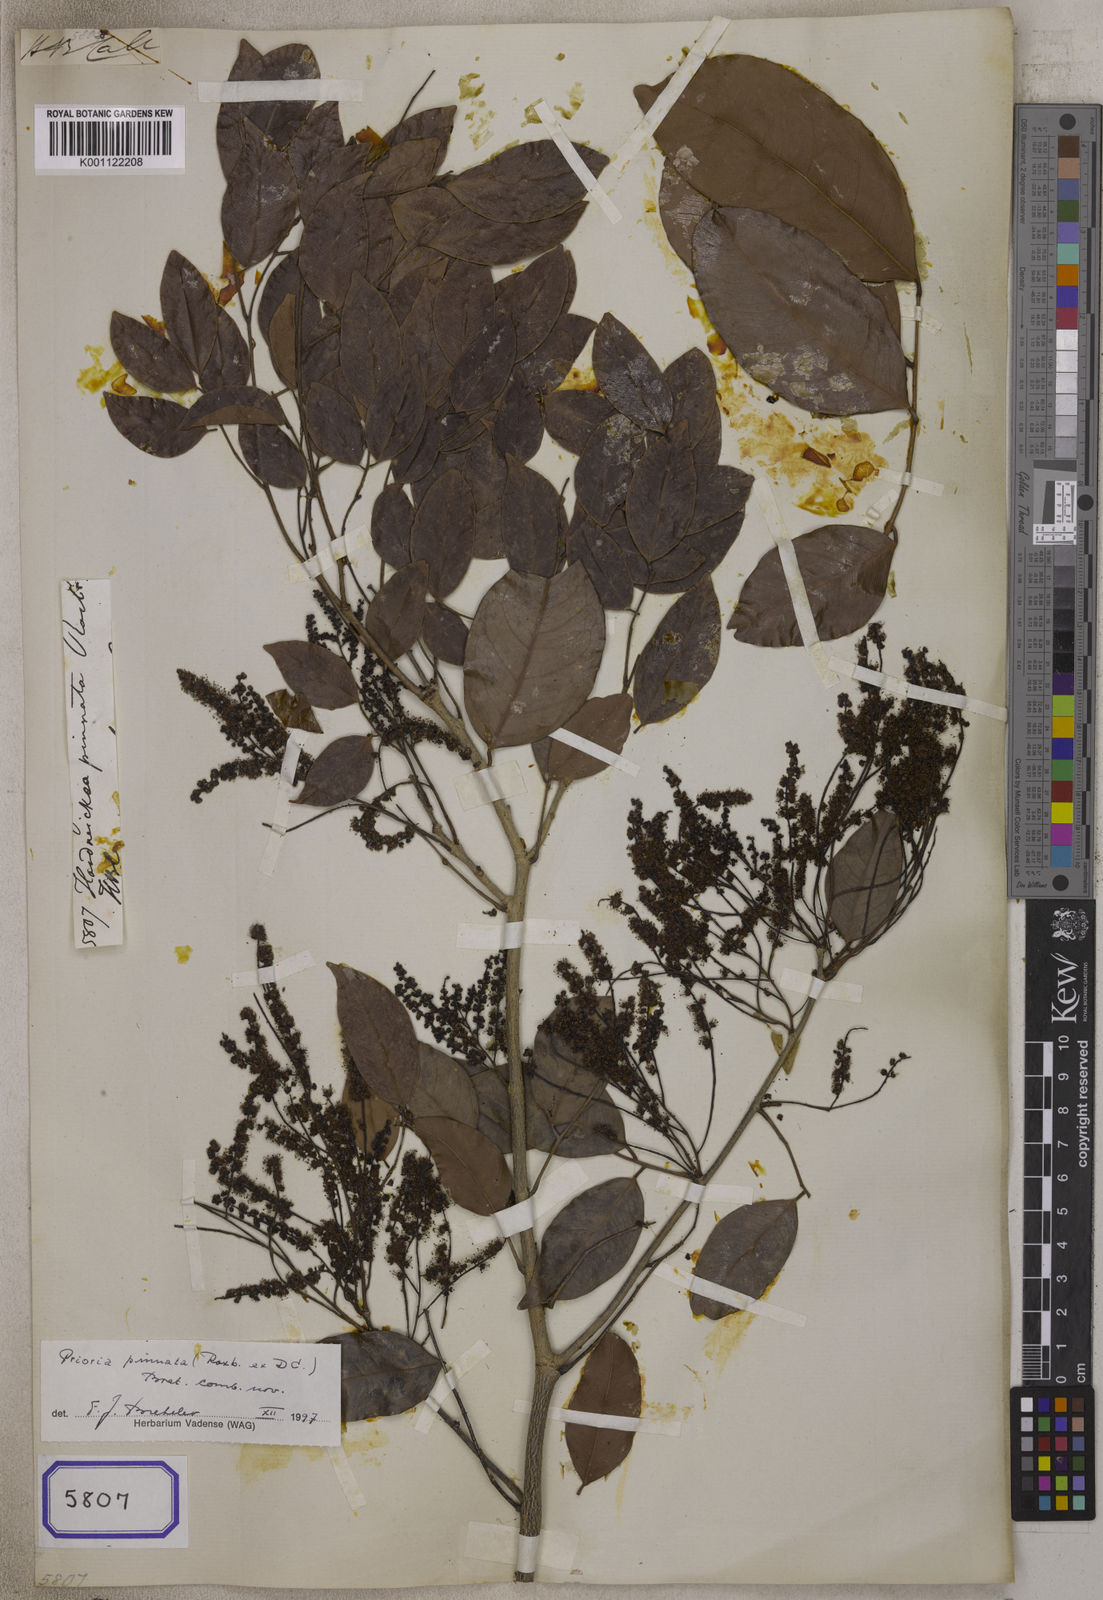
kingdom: Plantae
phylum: Tracheophyta
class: Magnoliopsida
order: Fabales
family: Fabaceae
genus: Hardwickia
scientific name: Hardwickia
